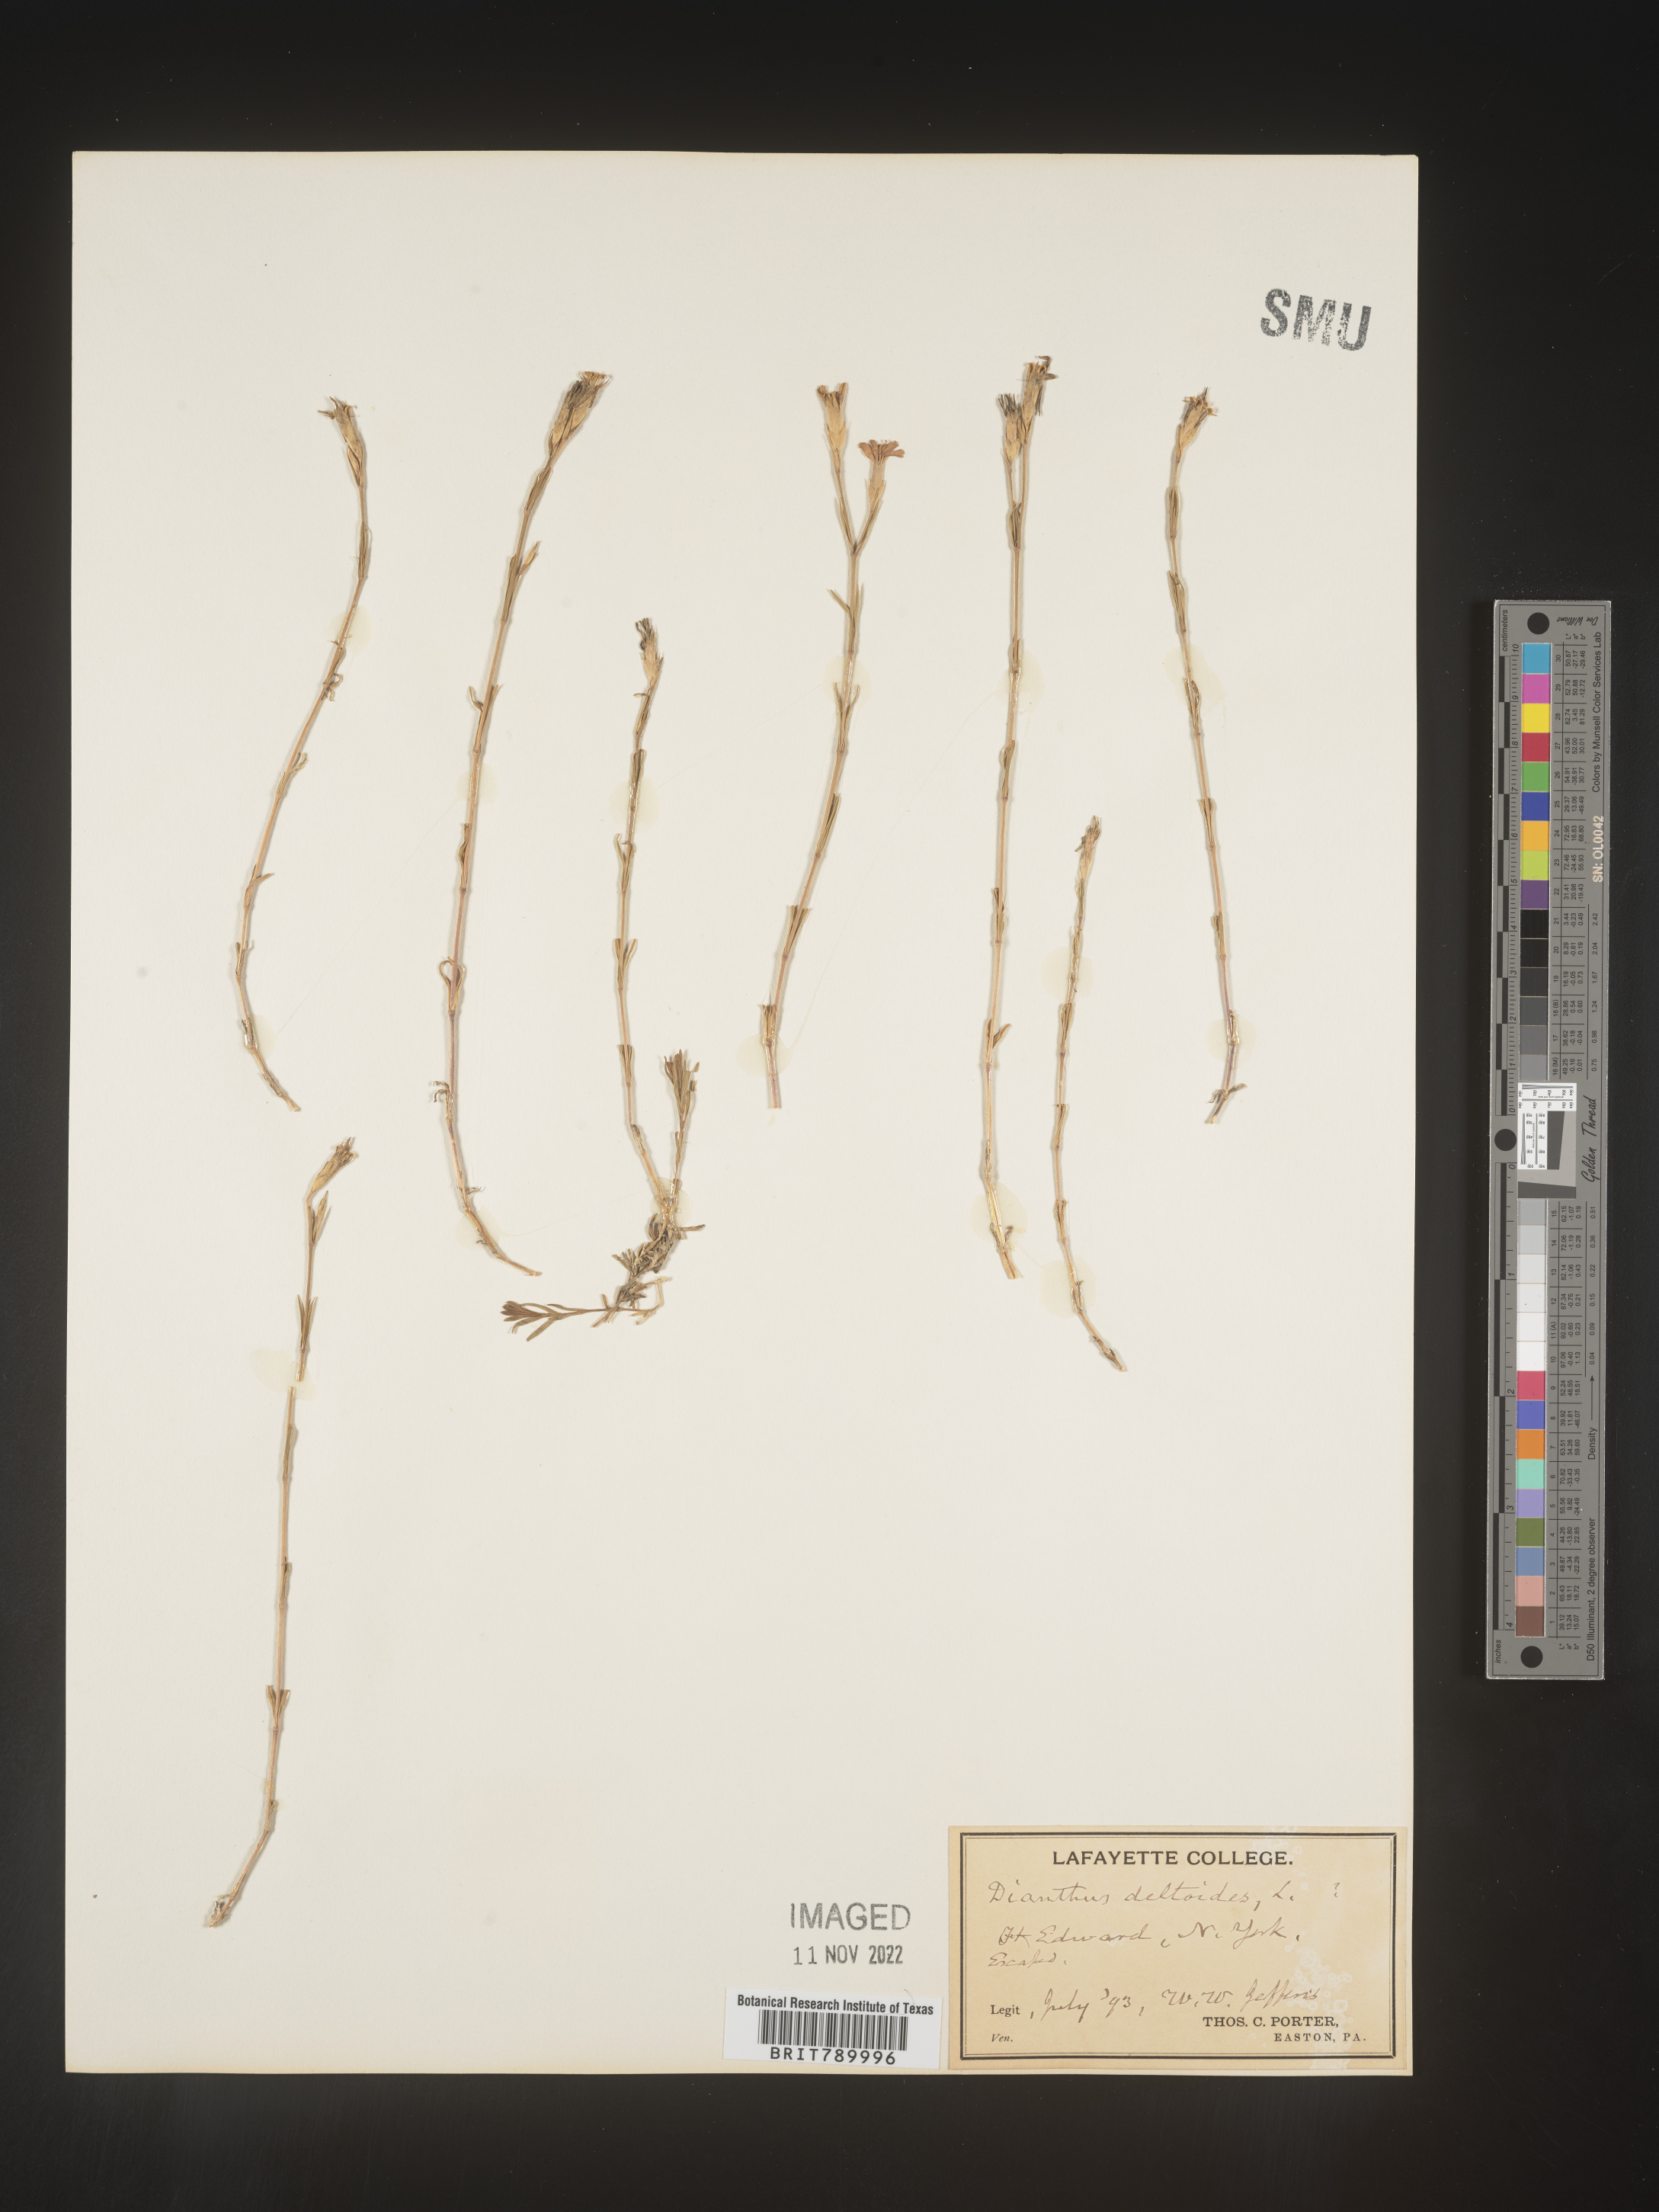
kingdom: Plantae
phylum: Tracheophyta
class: Magnoliopsida
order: Caryophyllales
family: Caryophyllaceae
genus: Dianthus
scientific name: Dianthus deltoides
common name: Maiden pink
